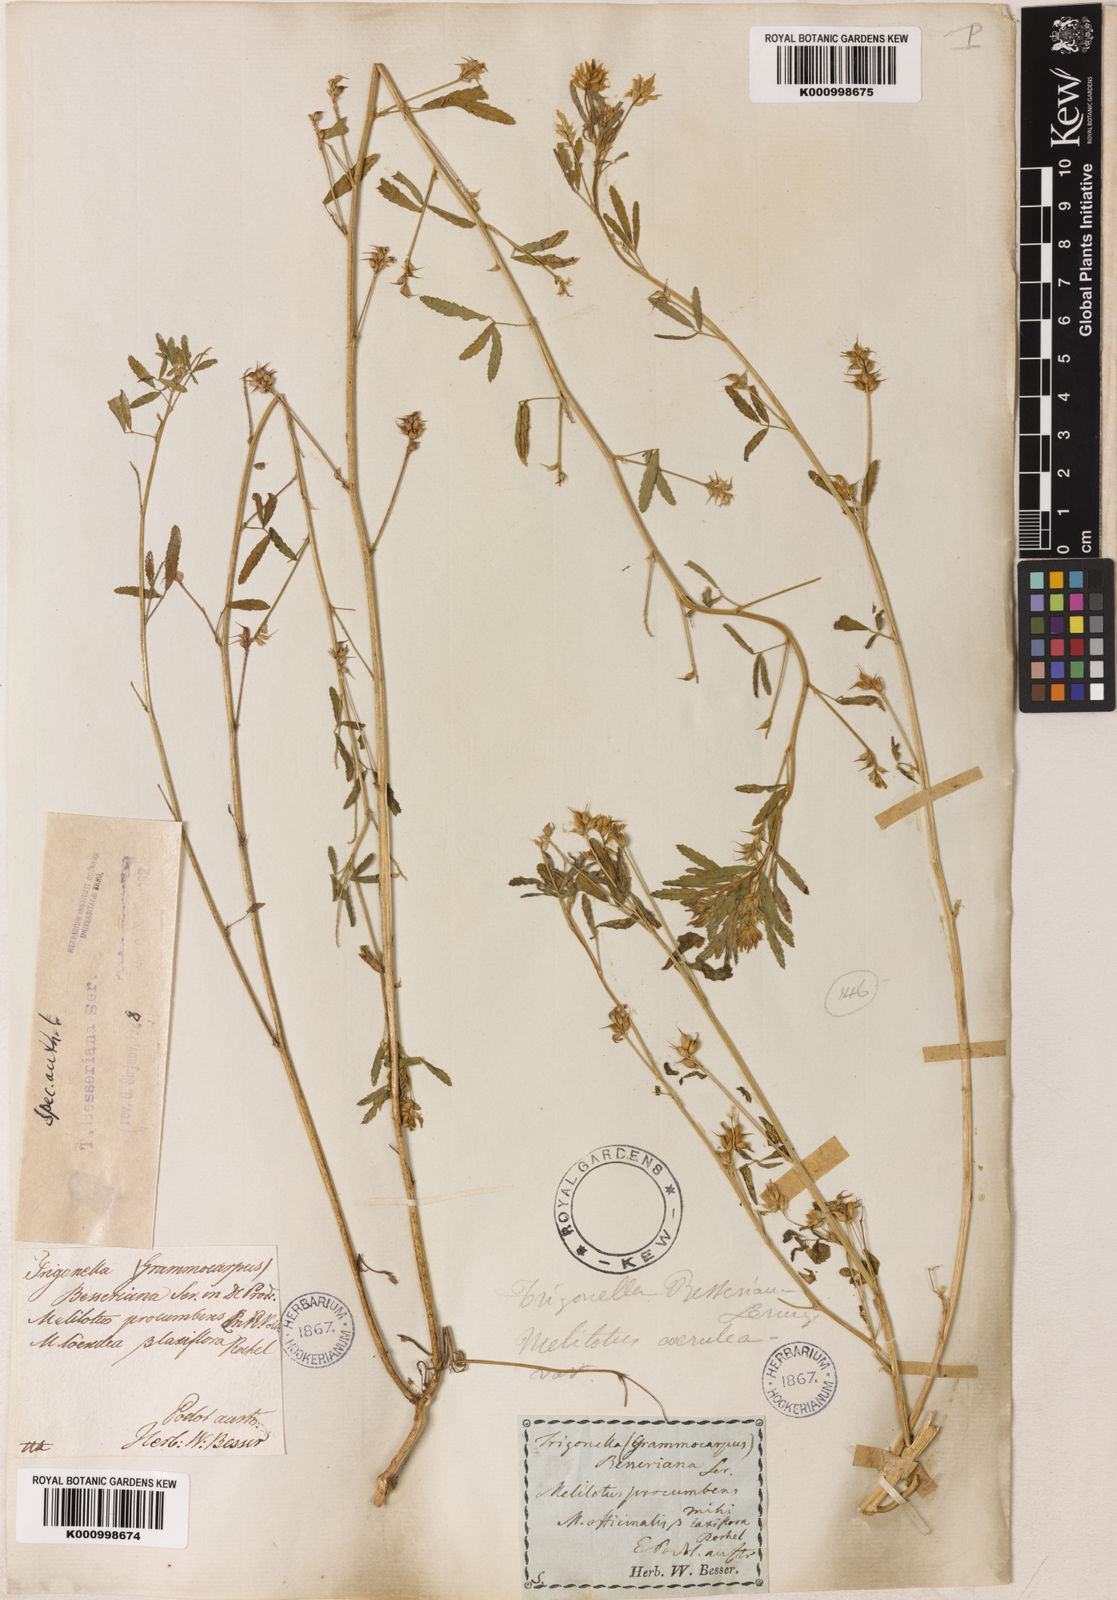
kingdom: Plantae
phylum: Tracheophyta
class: Magnoliopsida
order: Fabales
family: Fabaceae
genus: Trigonella
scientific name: Trigonella procumbens
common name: Trailing fenugreek
